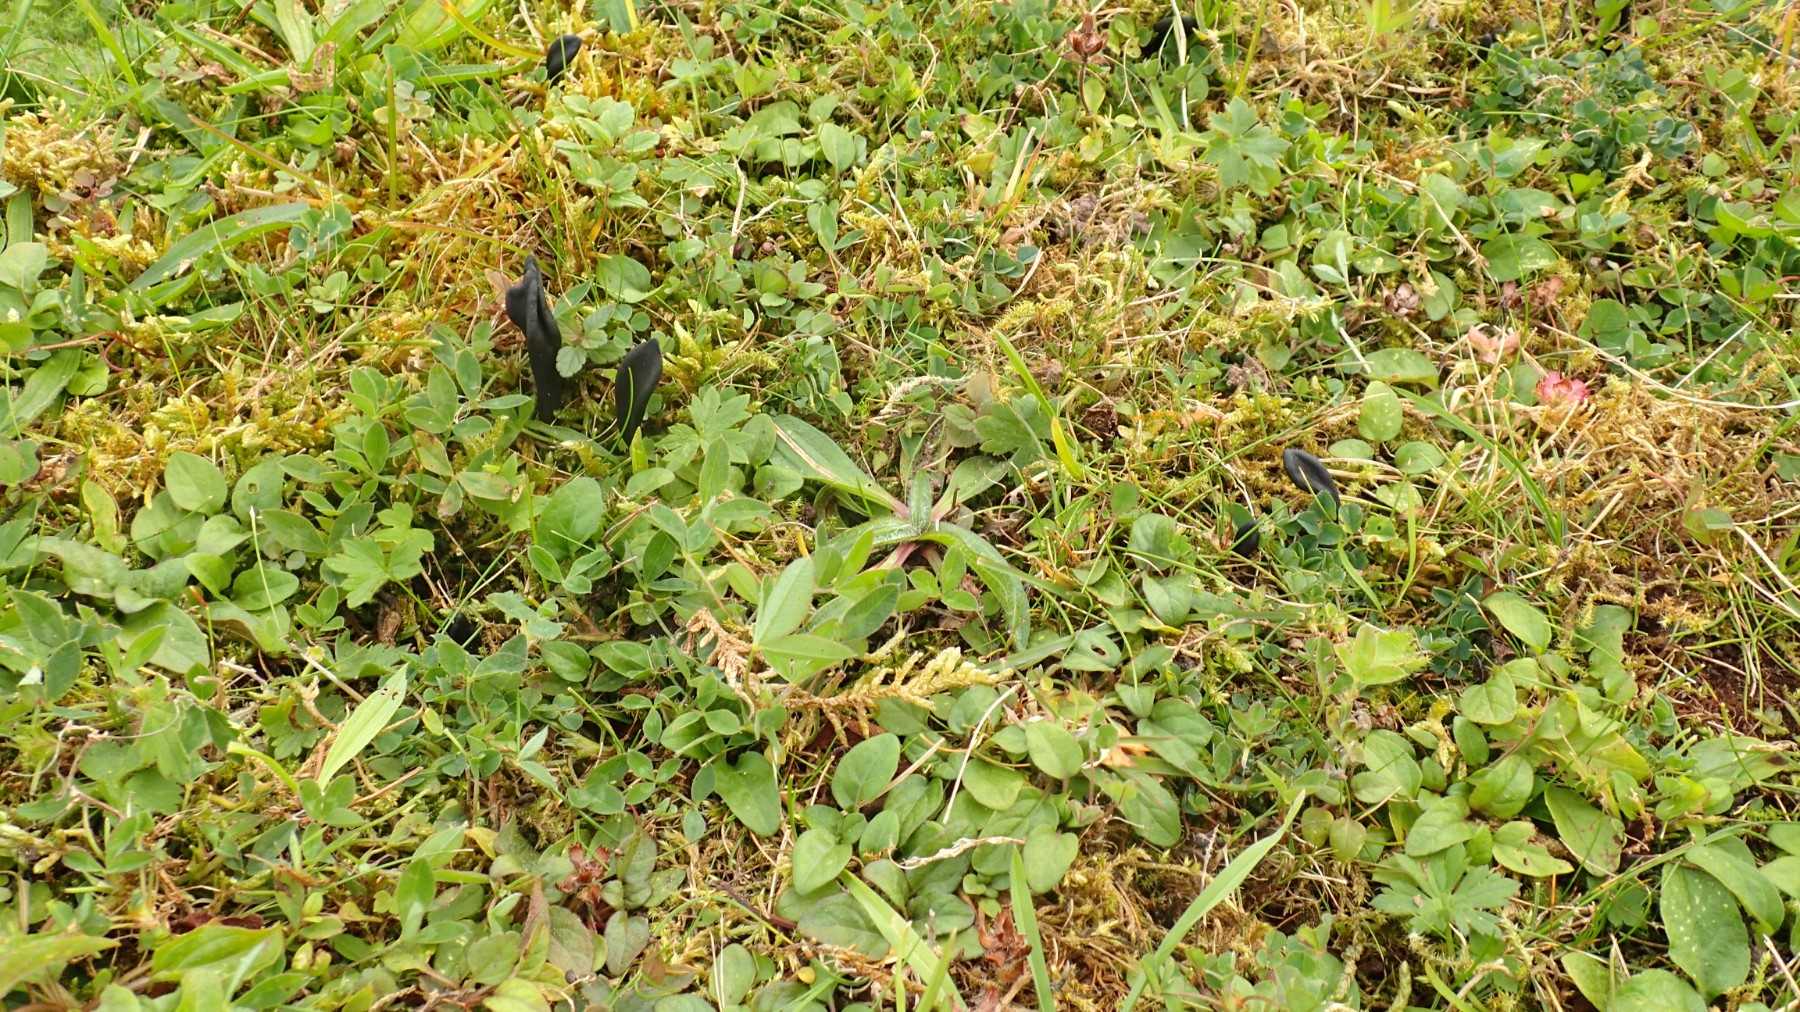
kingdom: Fungi
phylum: Ascomycota
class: Geoglossomycetes
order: Geoglossales
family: Geoglossaceae
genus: Geoglossum
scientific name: Geoglossum
